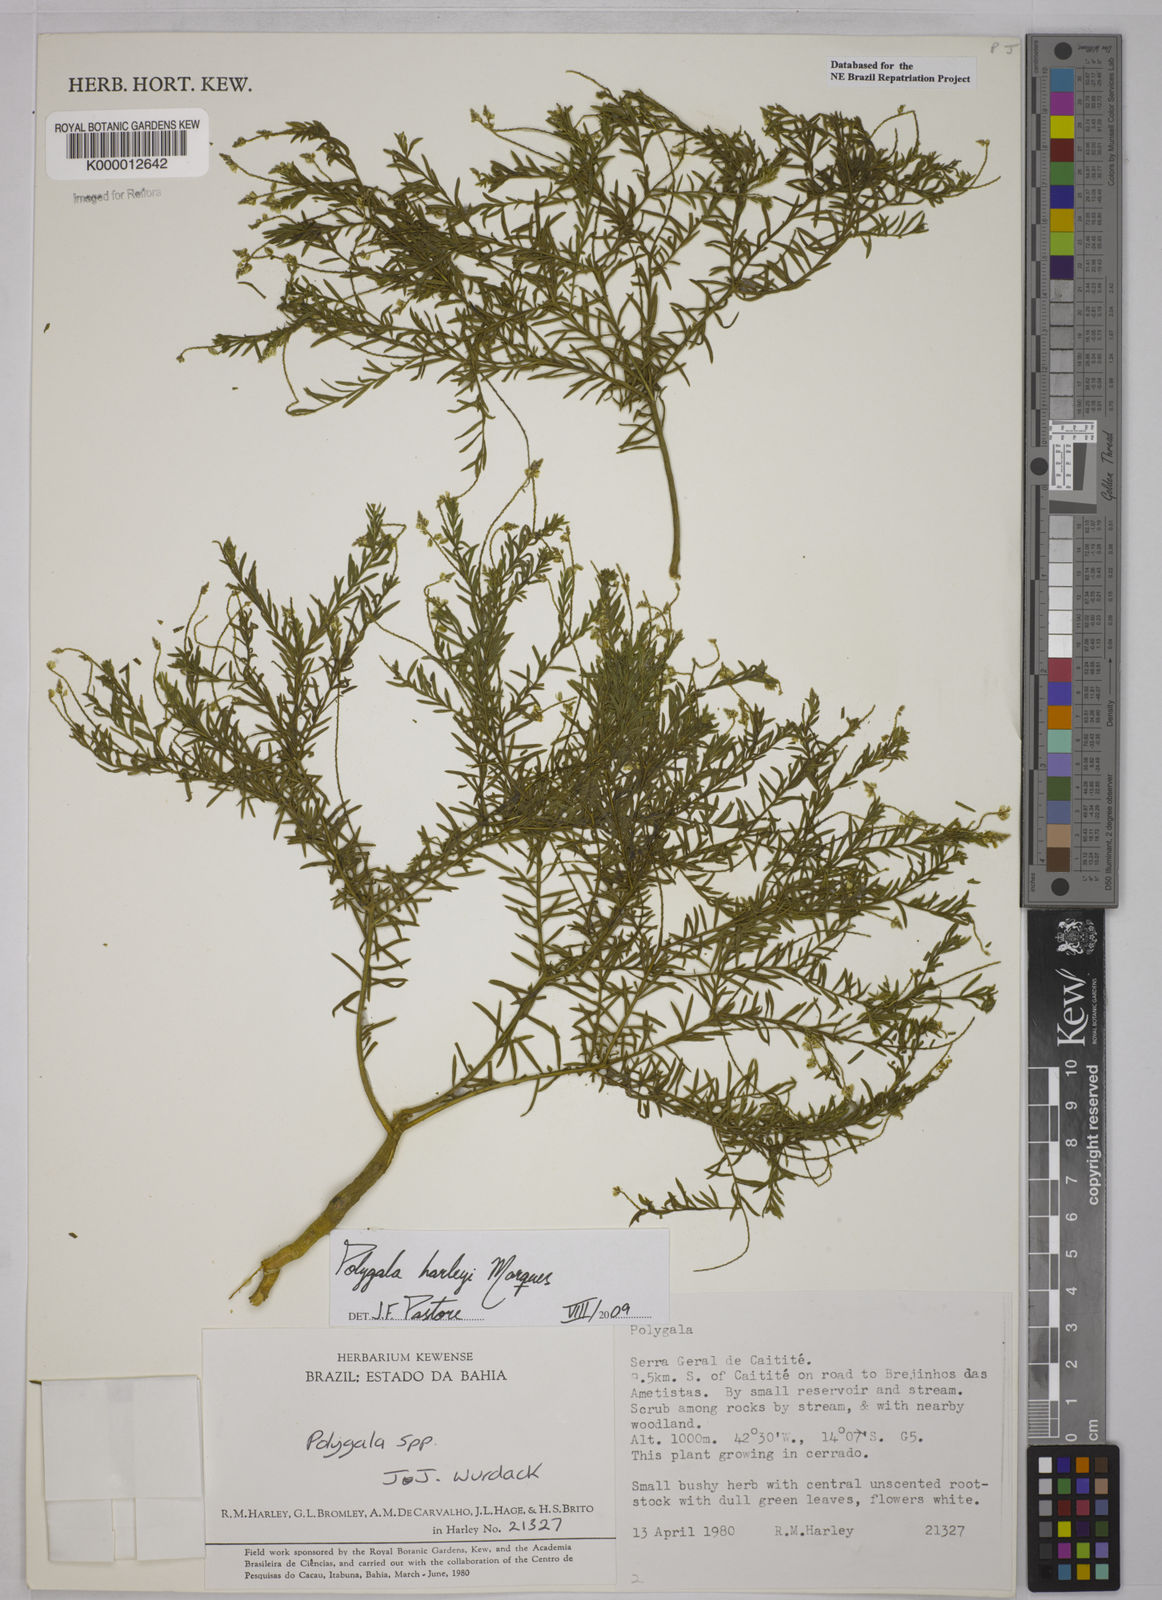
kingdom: Plantae
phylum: Tracheophyta
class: Magnoliopsida
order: Fabales
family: Polygalaceae
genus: Polygala
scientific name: Polygala
